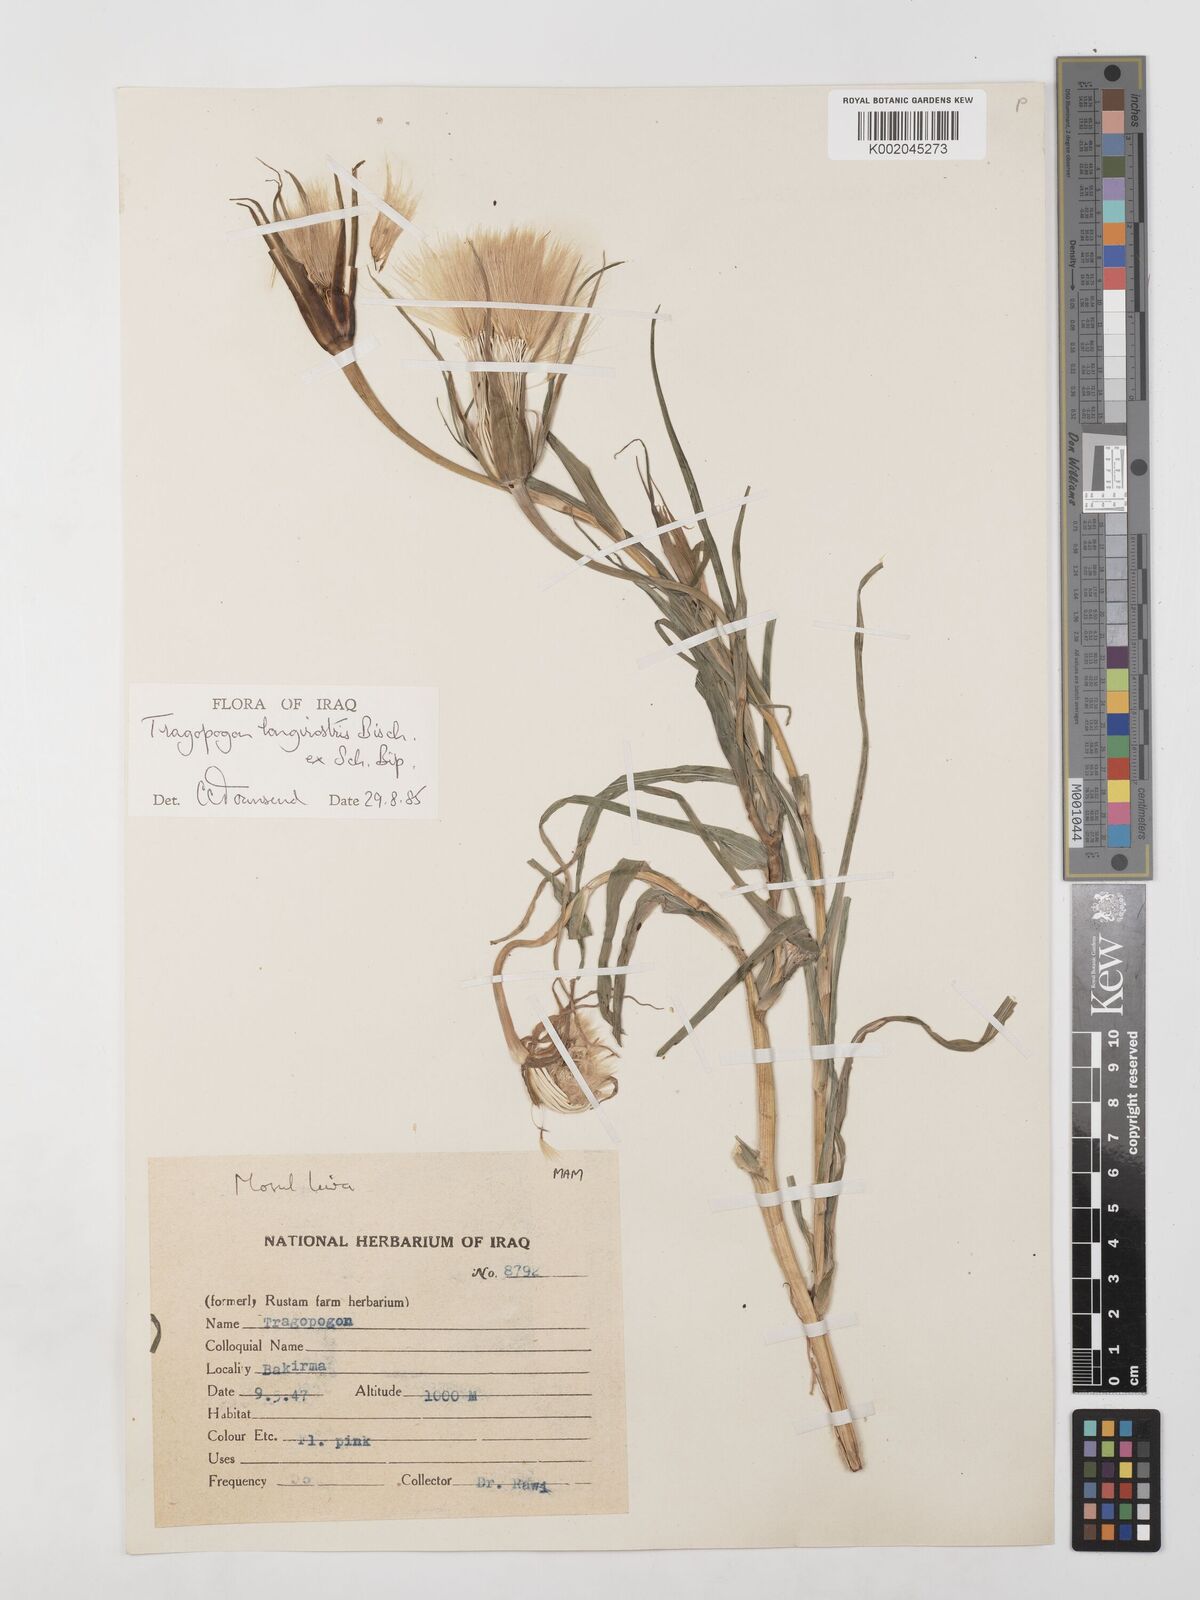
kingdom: Plantae
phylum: Tracheophyta
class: Magnoliopsida
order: Asterales
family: Asteraceae
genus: Tragopogon
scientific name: Tragopogon coelesyriacus
